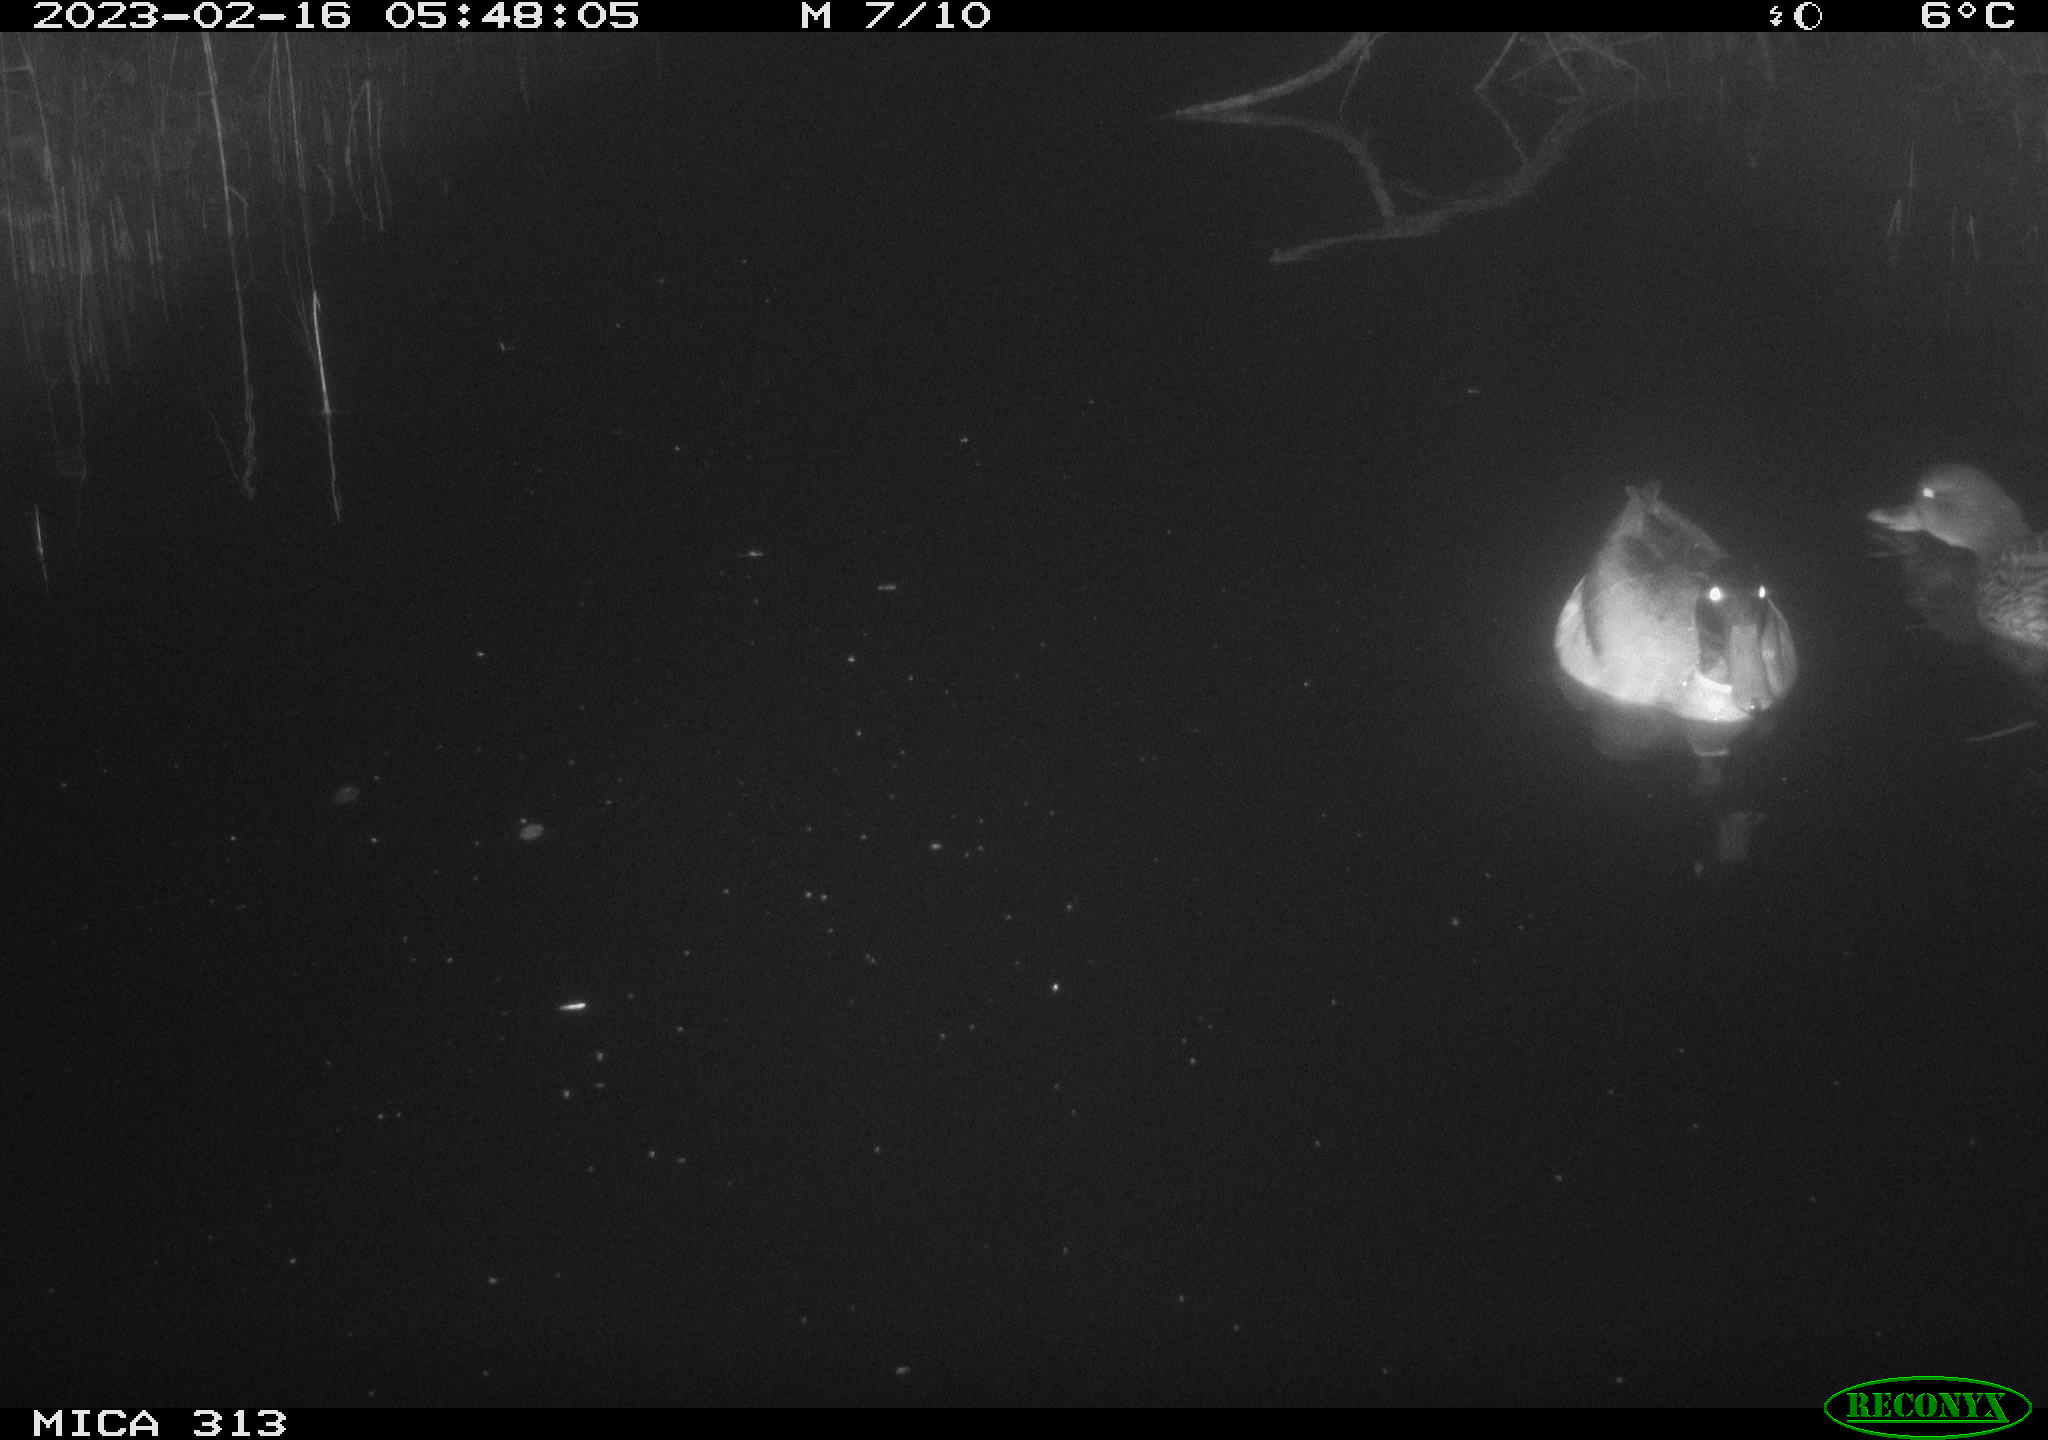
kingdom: Animalia
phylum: Chordata
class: Aves
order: Anseriformes
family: Anatidae
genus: Anas
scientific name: Anas
